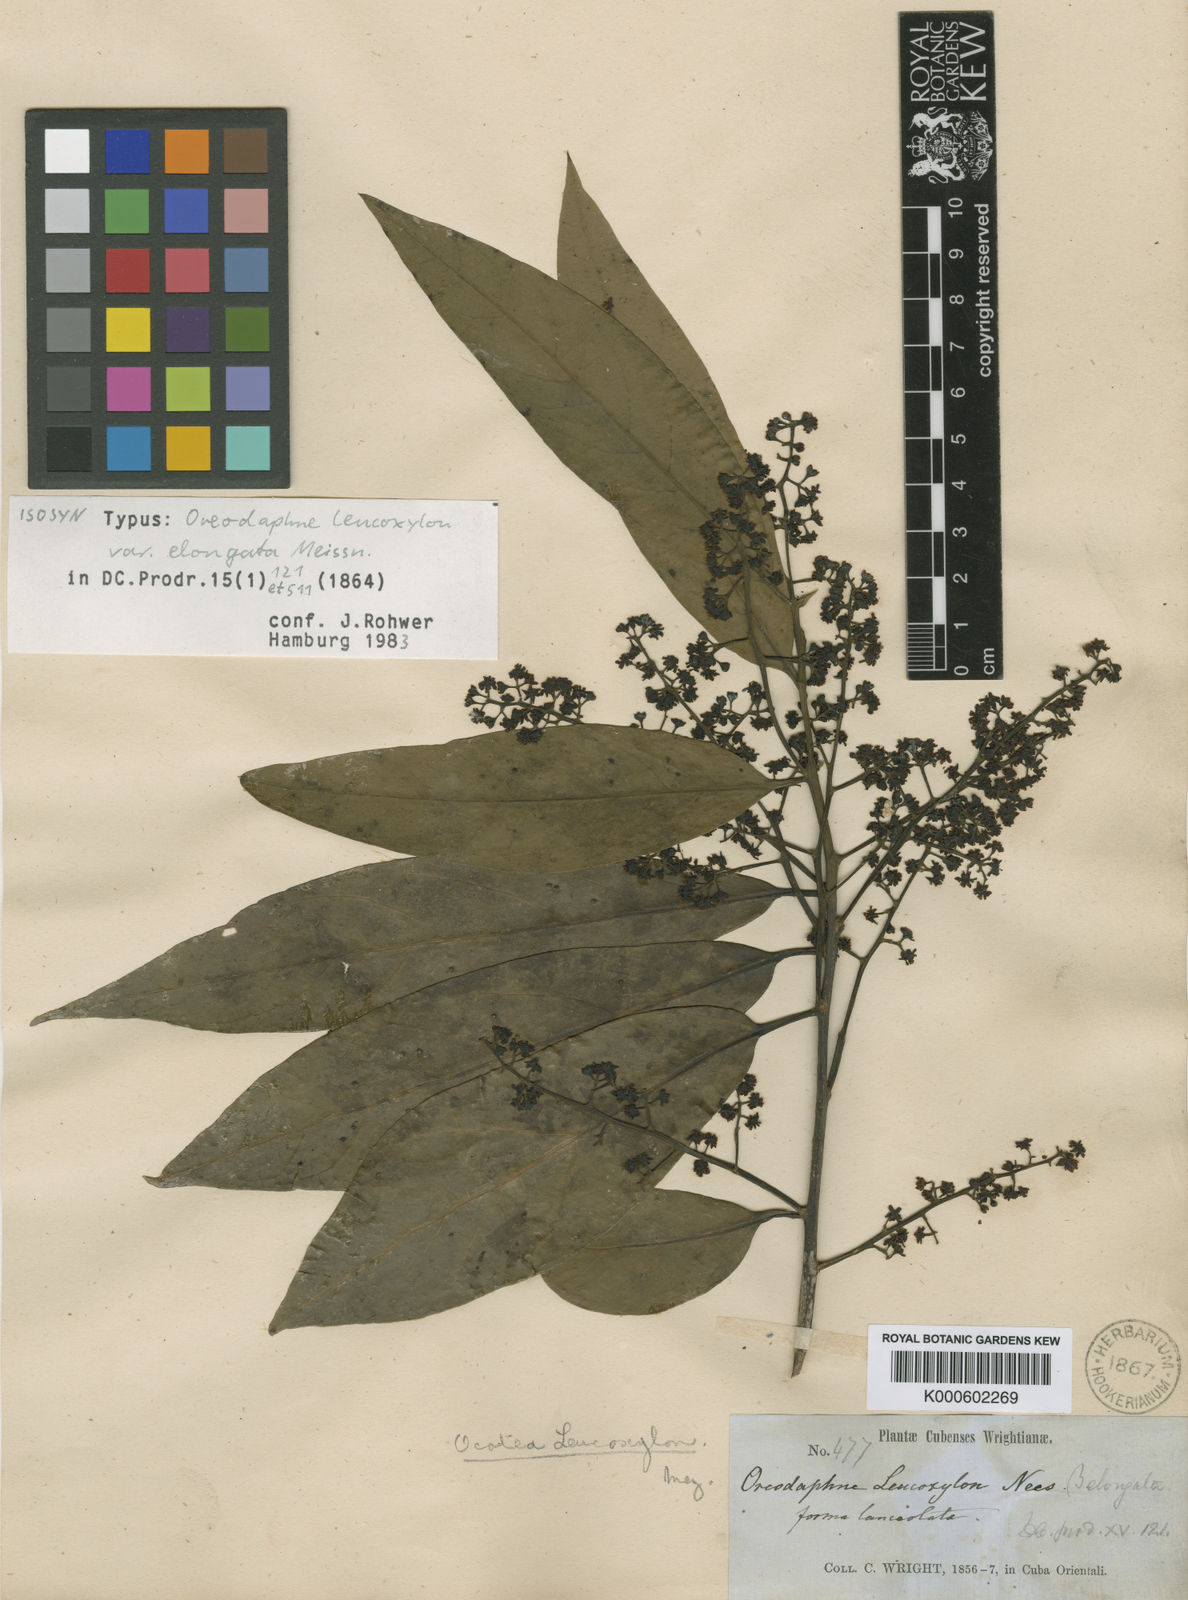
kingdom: Plantae
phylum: Tracheophyta
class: Magnoliopsida
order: Laurales
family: Lauraceae
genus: Ocotea
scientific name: Ocotea
